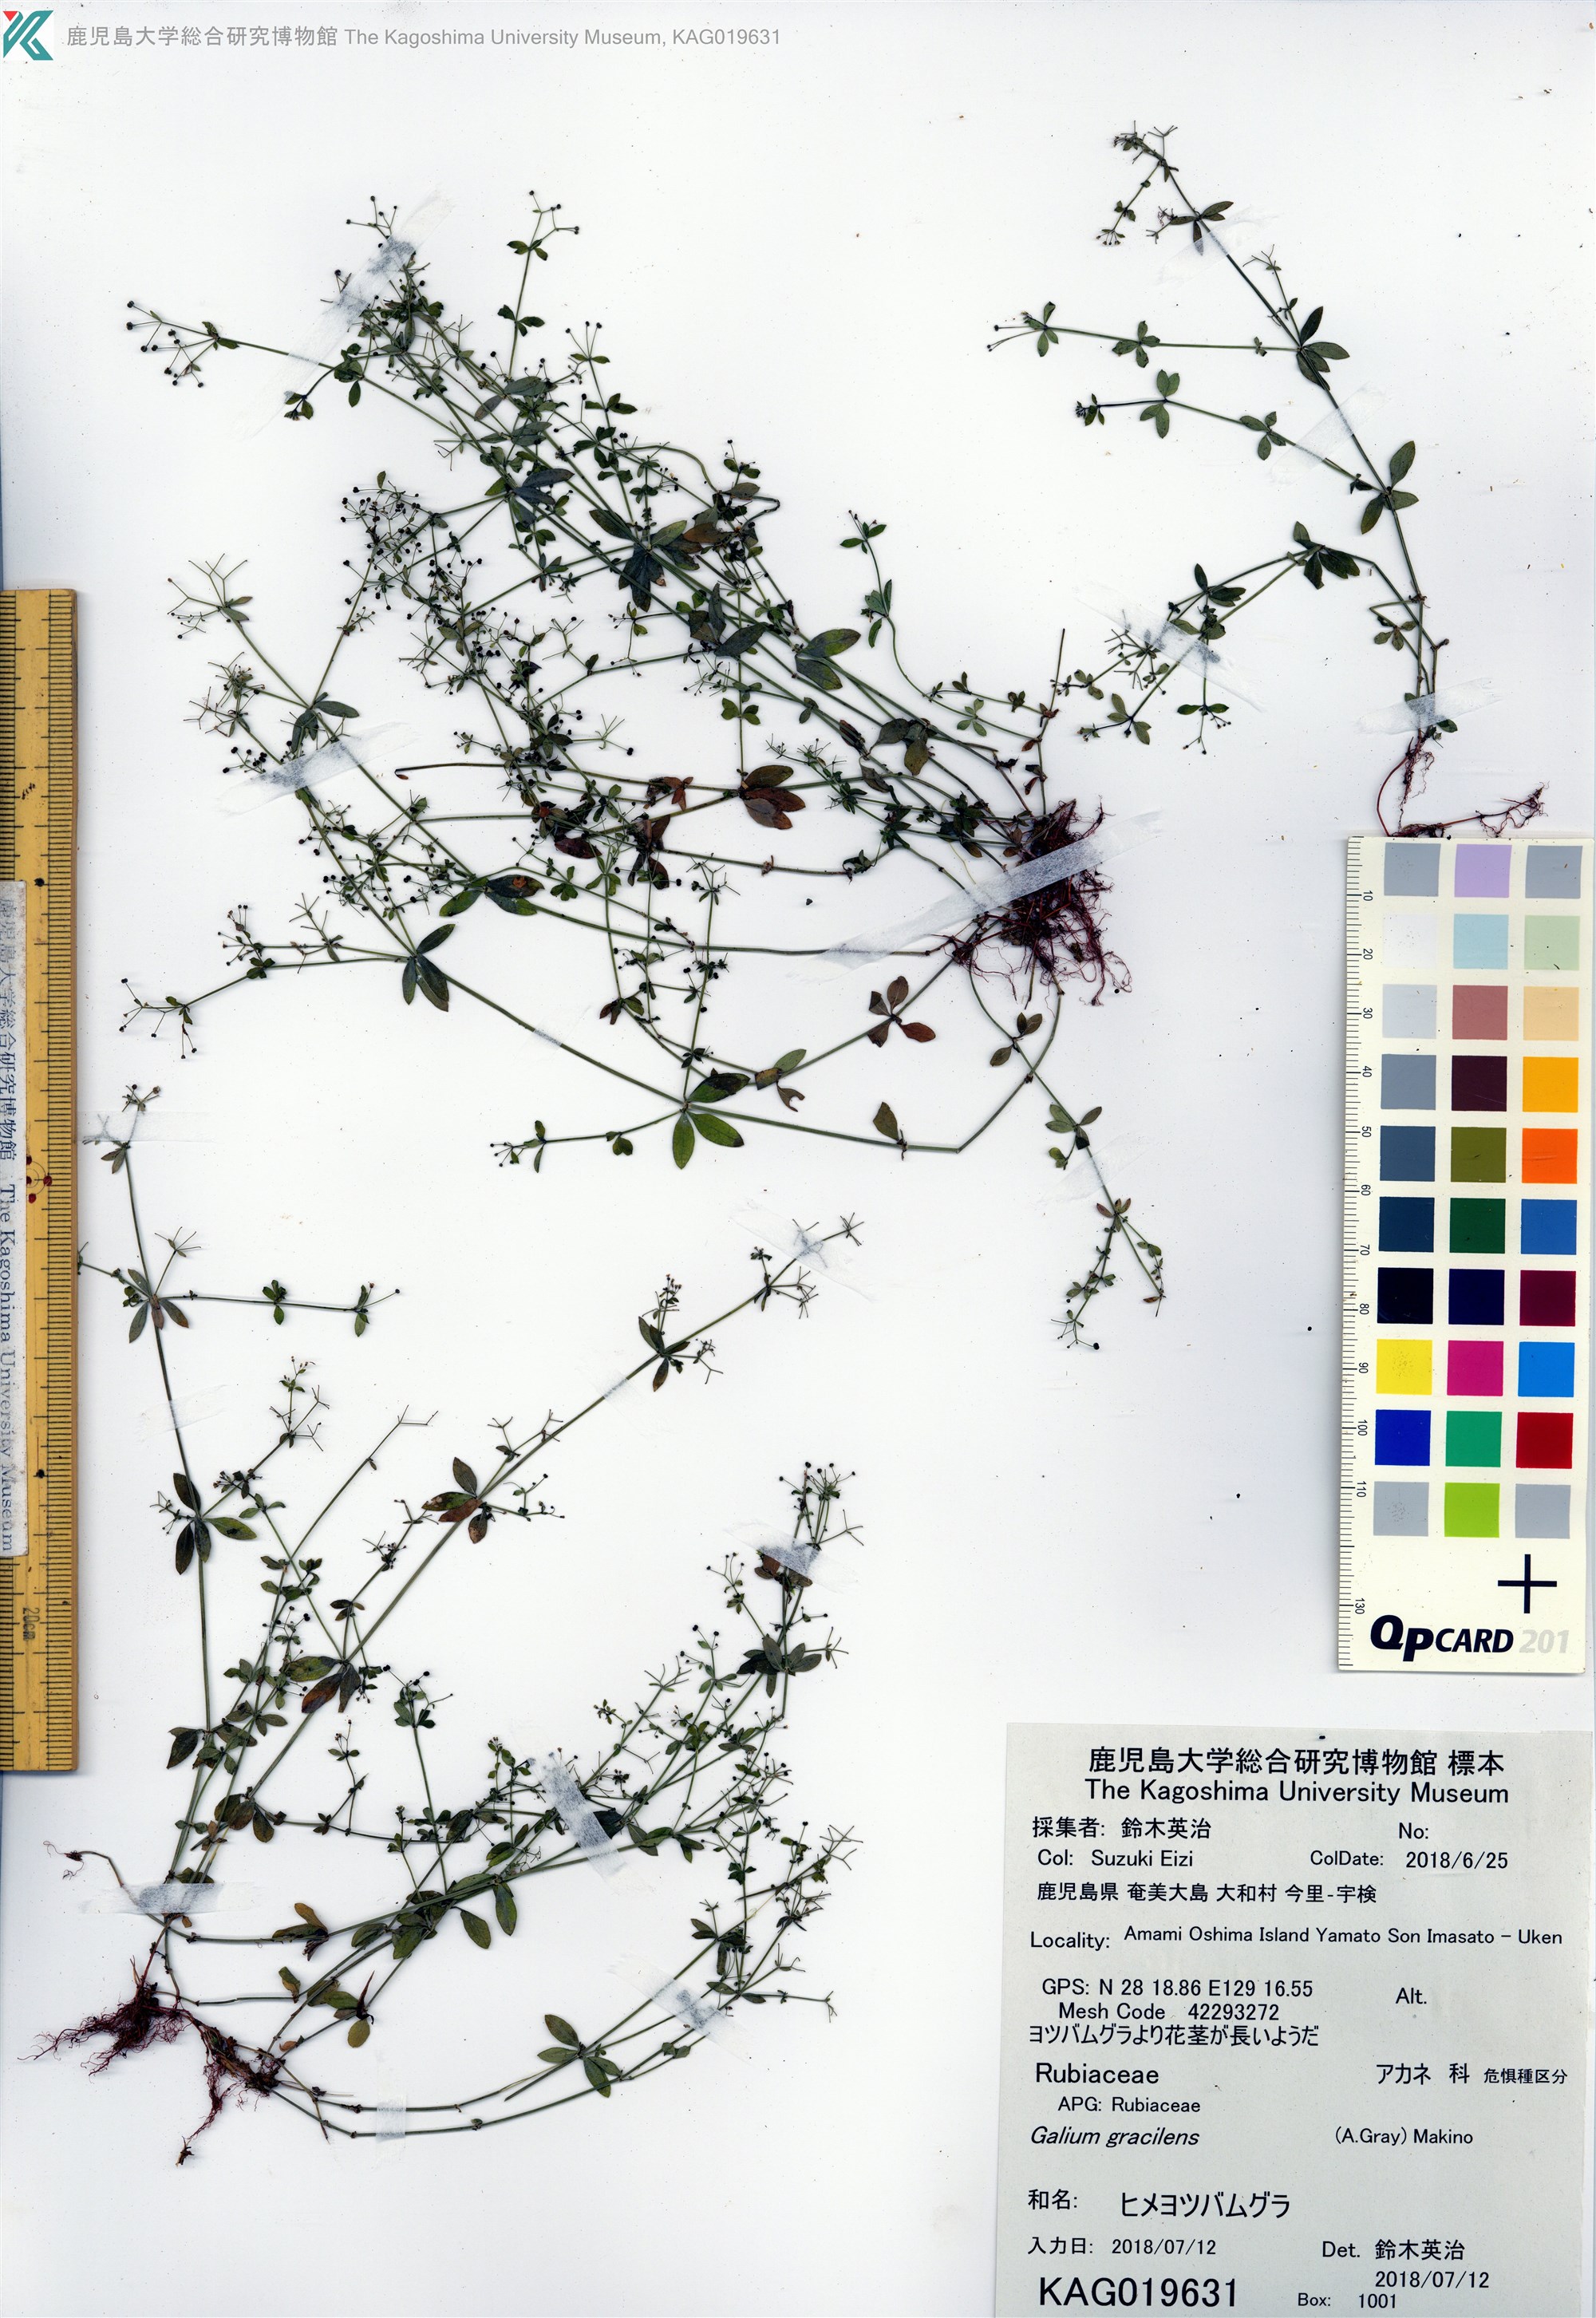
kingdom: Plantae
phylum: Tracheophyta
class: Magnoliopsida
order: Gentianales
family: Rubiaceae
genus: Galium
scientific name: Galium bungei
